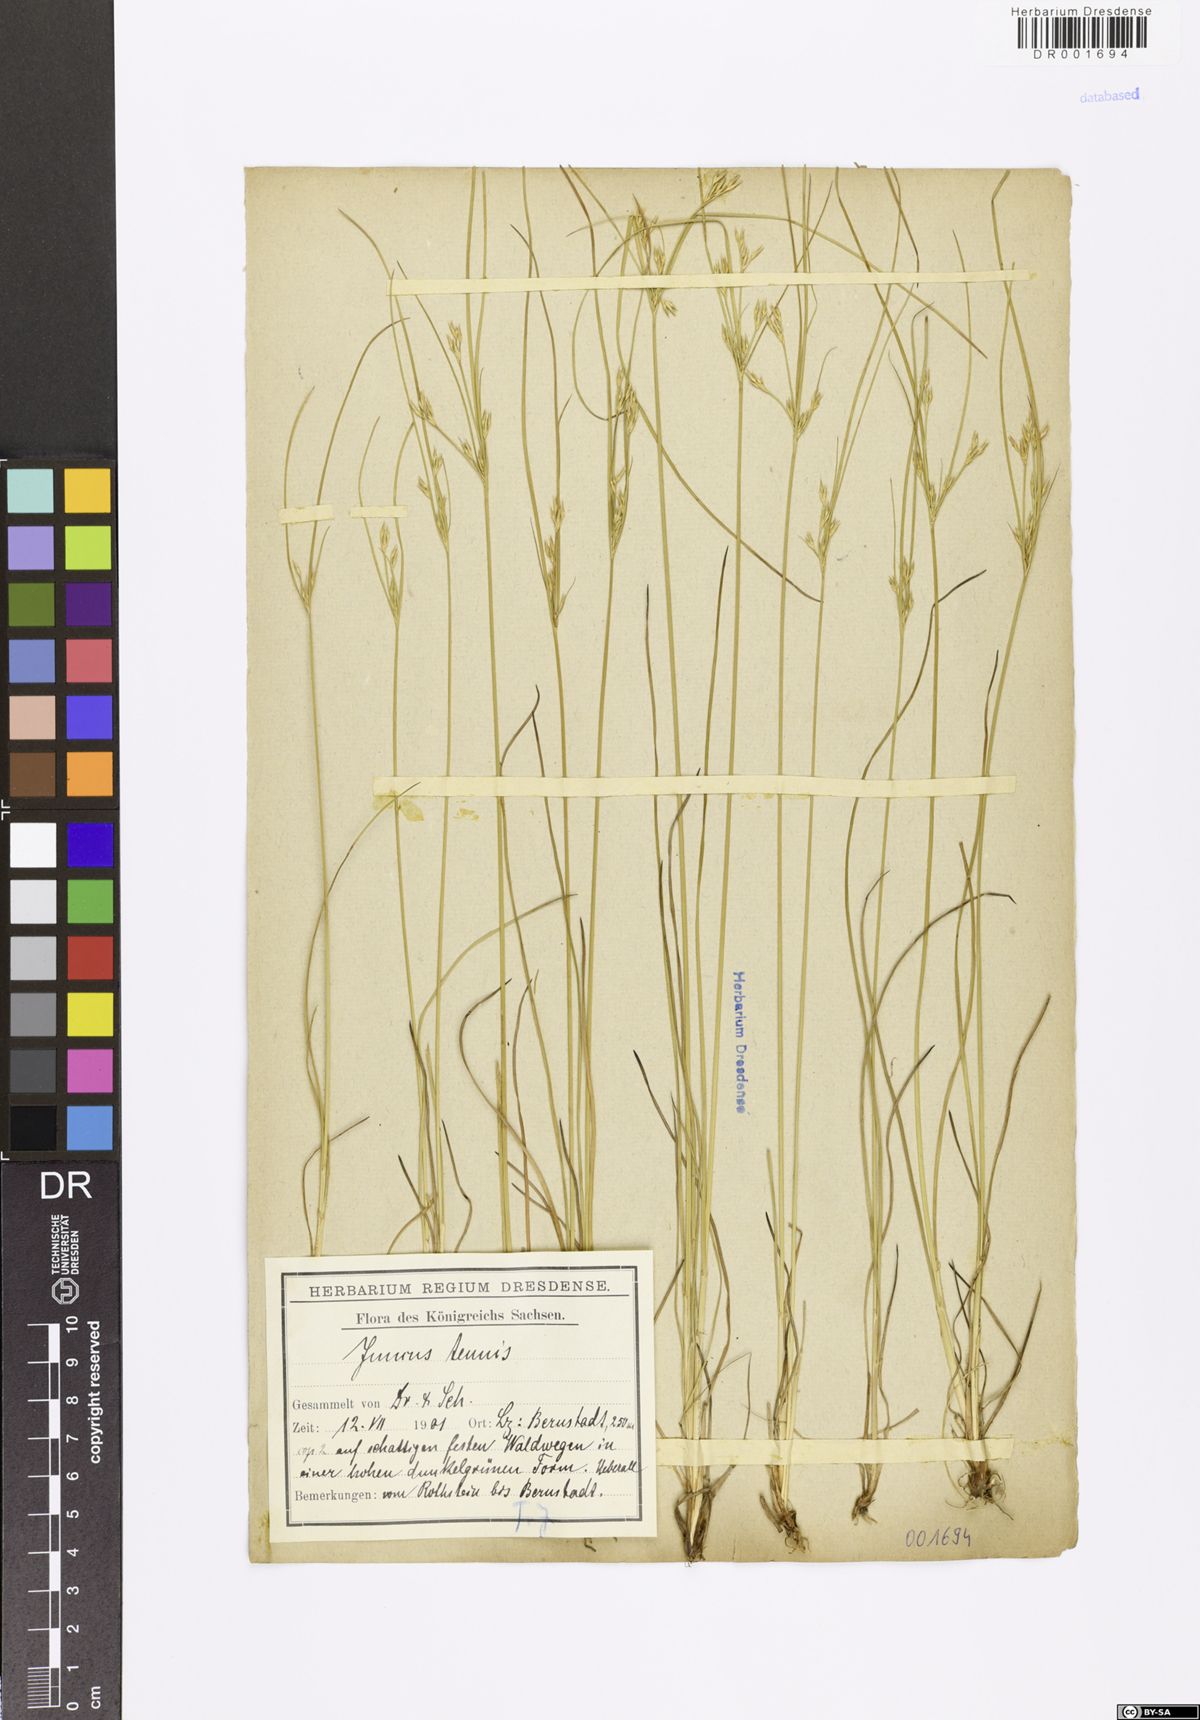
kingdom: Plantae
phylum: Tracheophyta
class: Liliopsida
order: Poales
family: Juncaceae
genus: Juncus
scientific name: Juncus tenuis
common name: Slender rush
